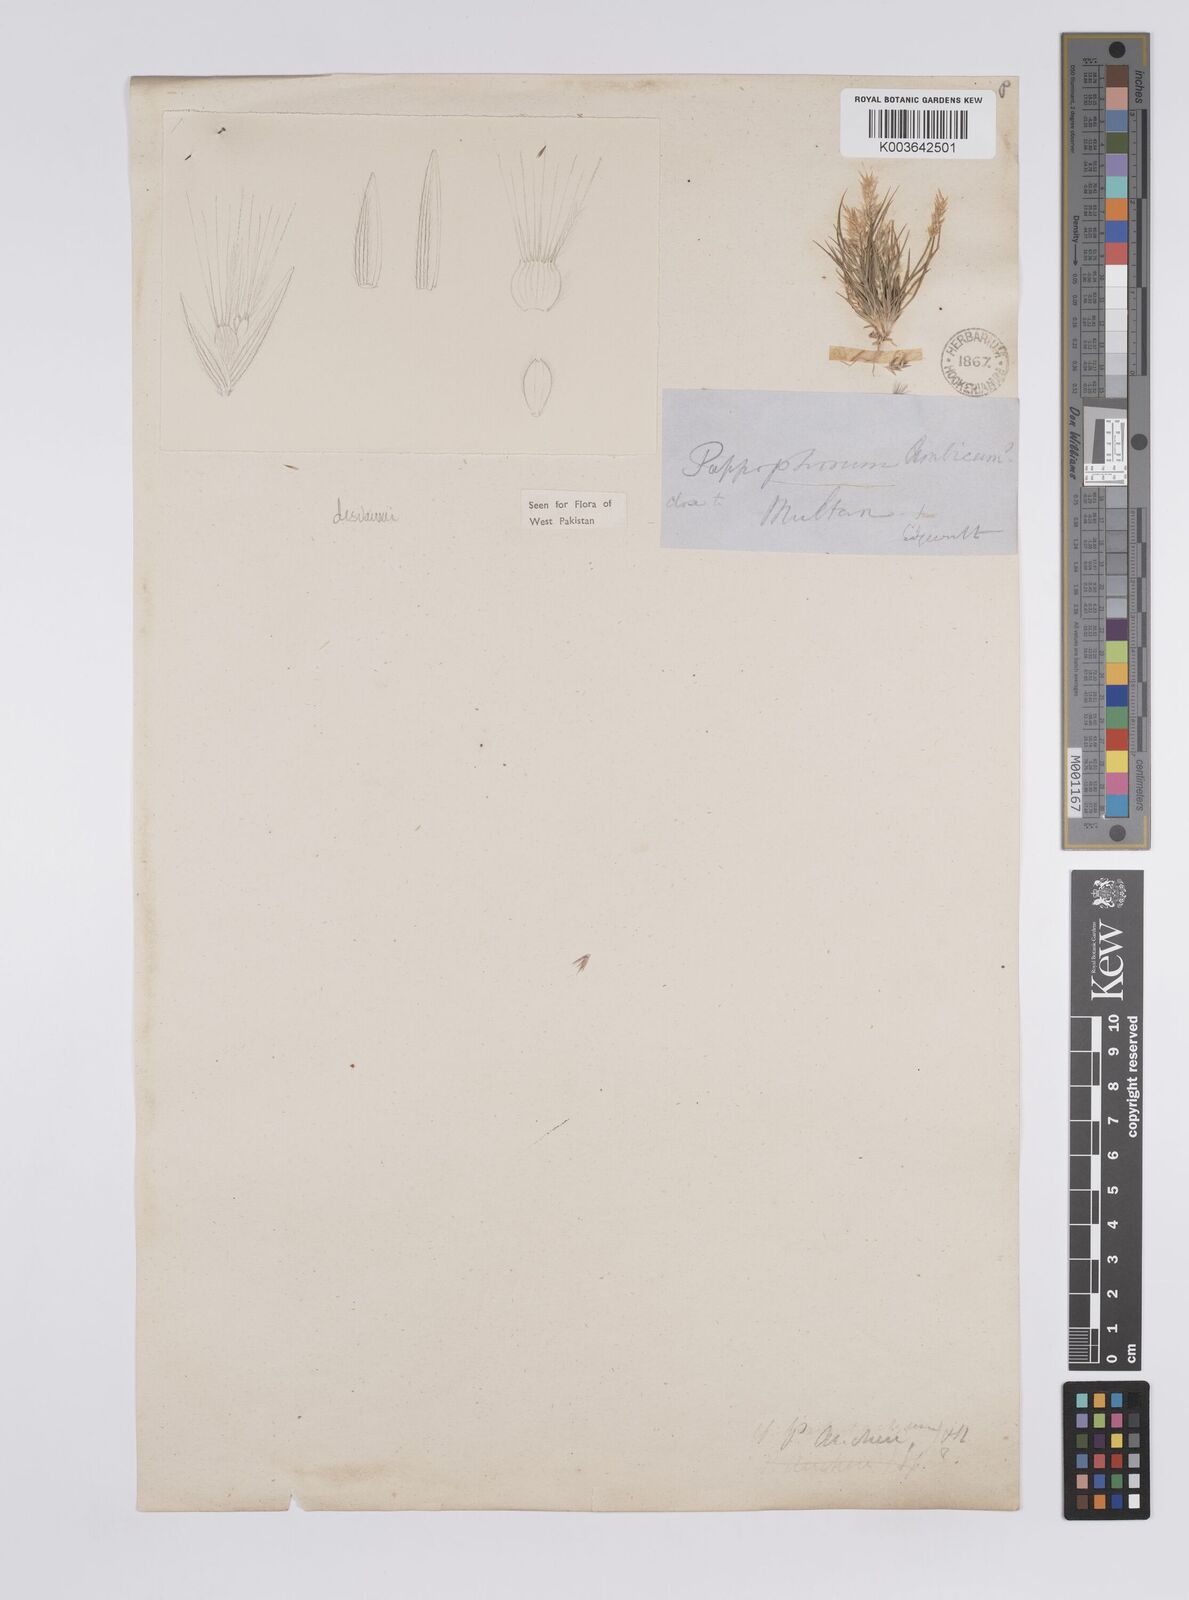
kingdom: Plantae
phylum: Tracheophyta
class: Liliopsida
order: Poales
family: Poaceae
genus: Enneapogon
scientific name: Enneapogon desvauxii
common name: Feather pappus grass
